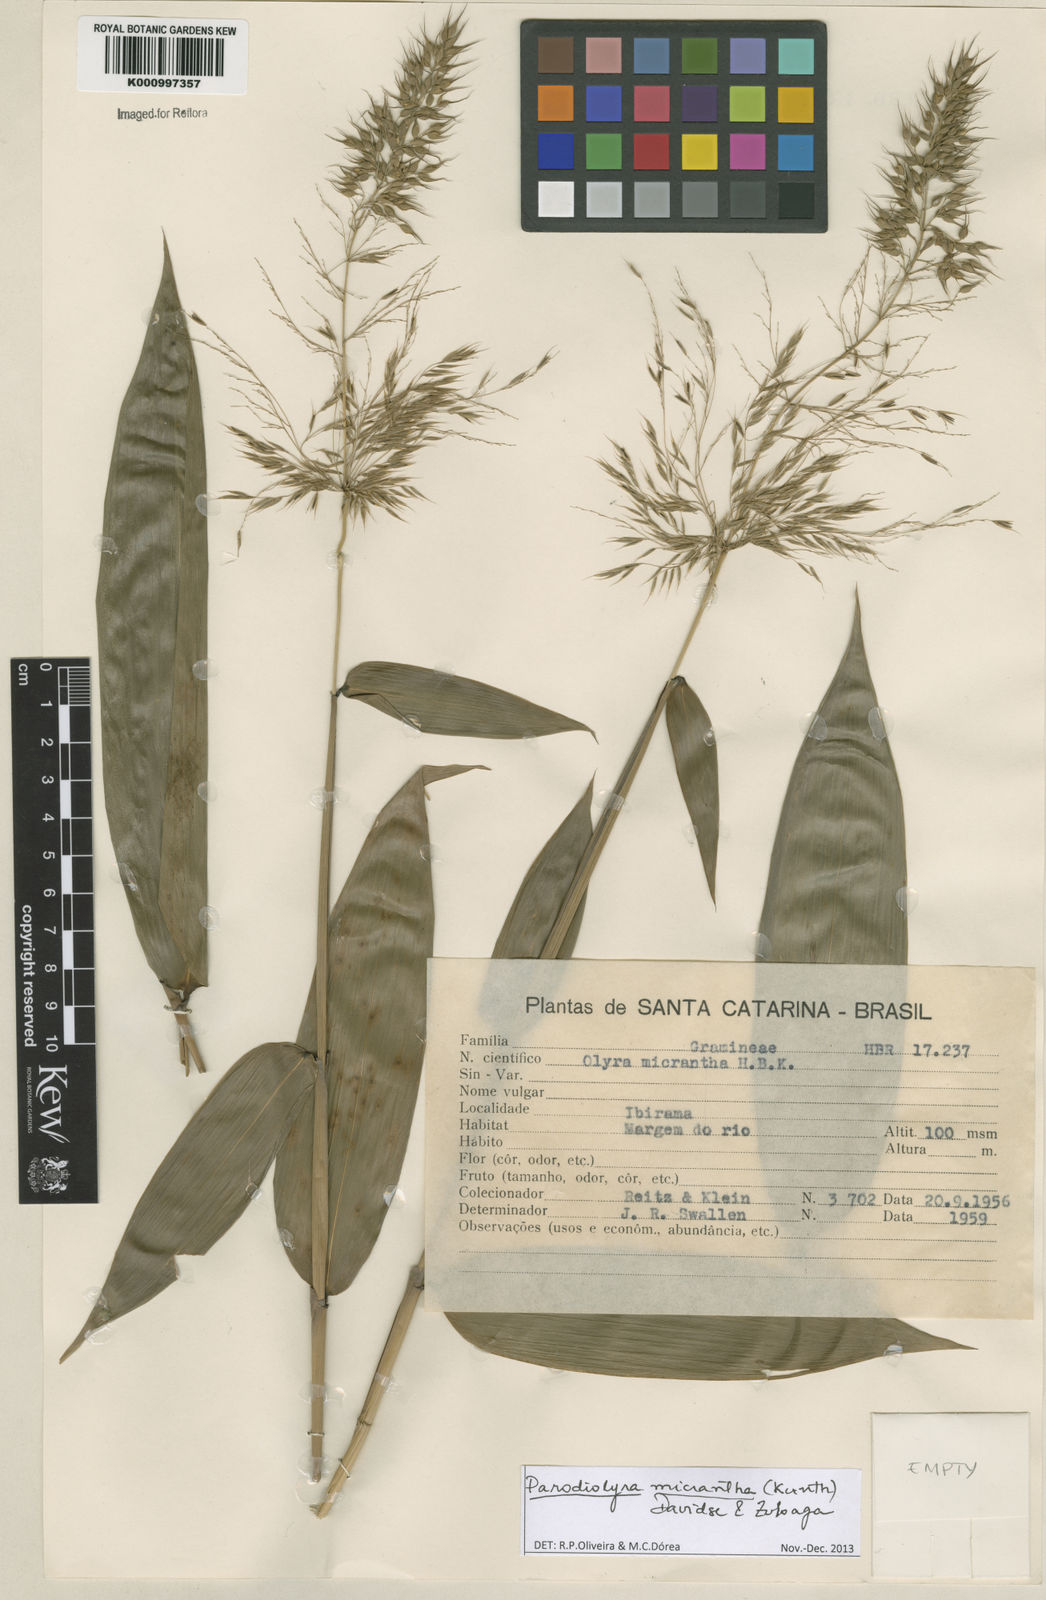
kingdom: Plantae
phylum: Tracheophyta
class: Liliopsida
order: Poales
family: Poaceae
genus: Taquara
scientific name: Taquara micrantha
